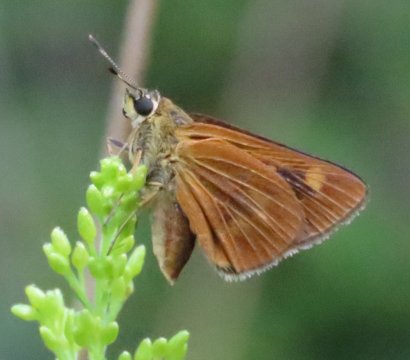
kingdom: Animalia
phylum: Arthropoda
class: Insecta
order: Lepidoptera
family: Hesperiidae
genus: Problema
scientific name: Problema byssus
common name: Byssus Skipper
